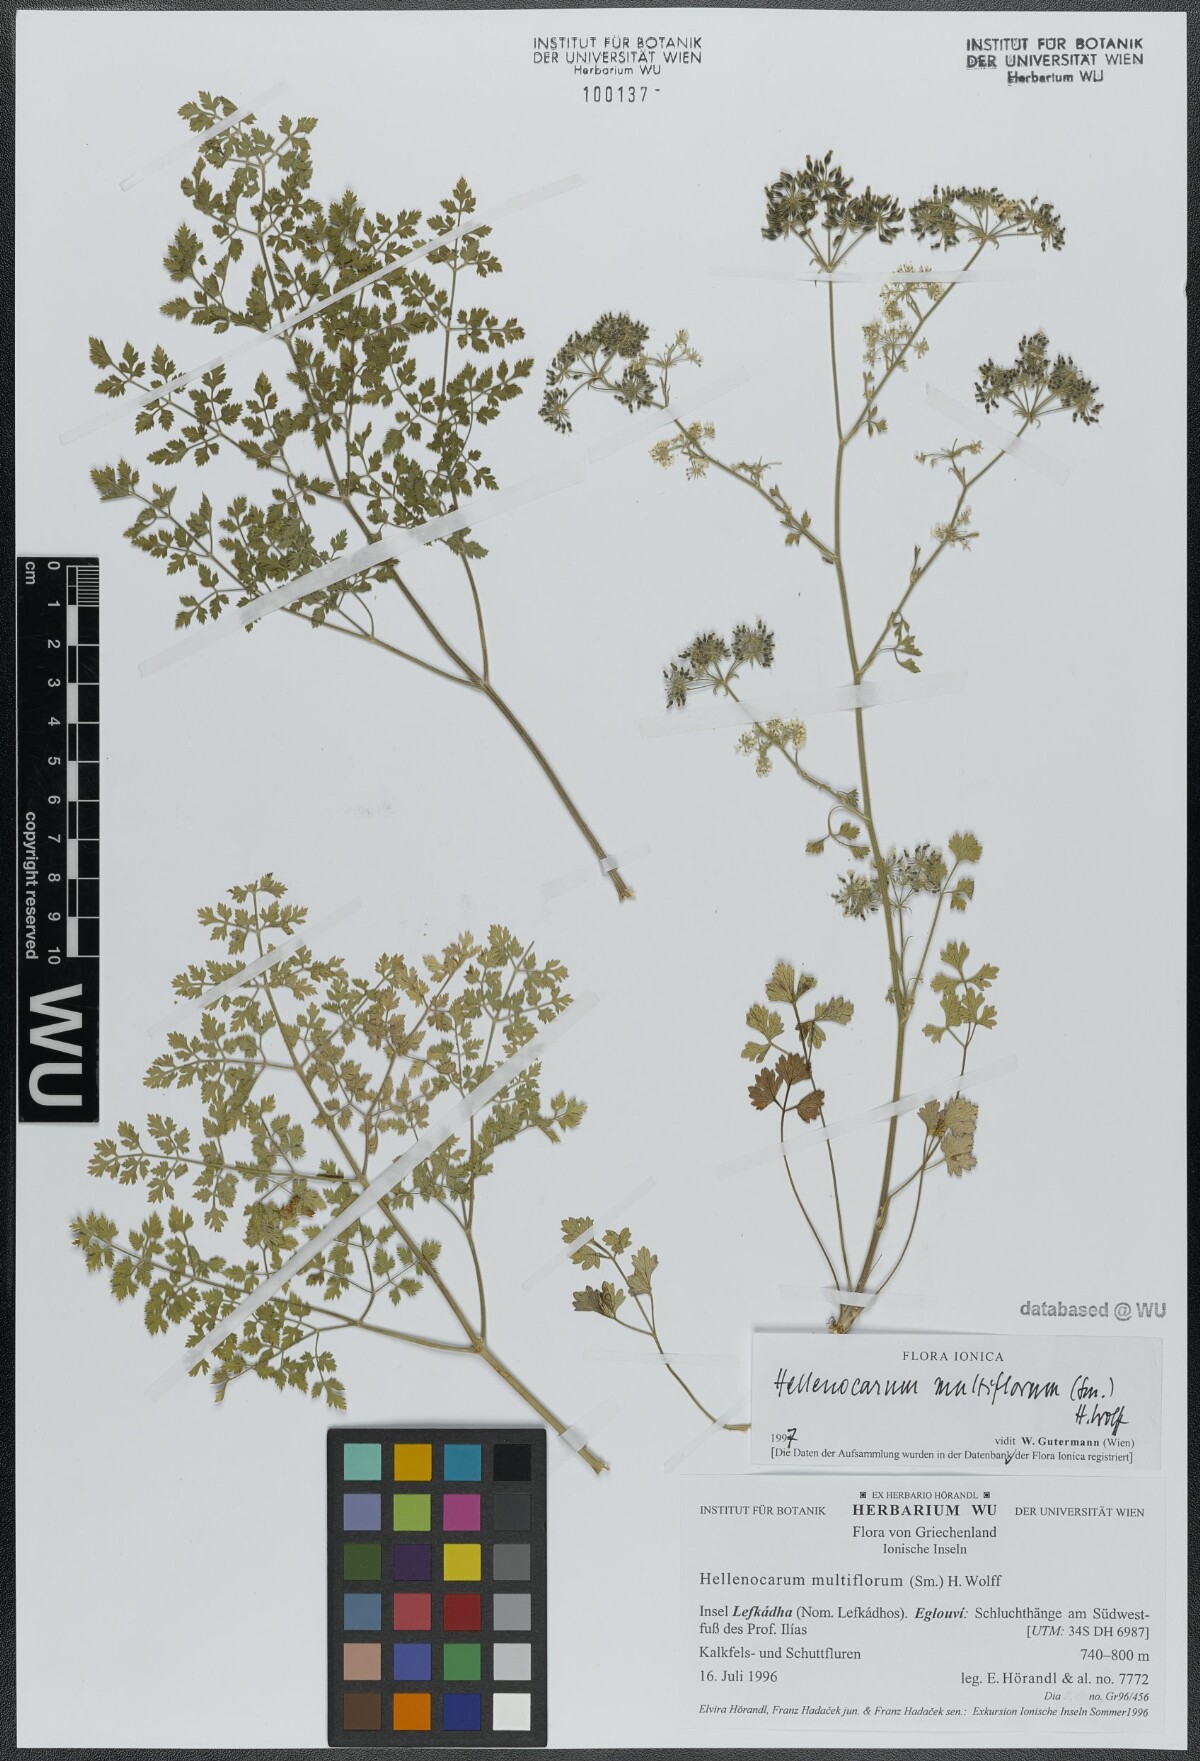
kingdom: Plantae
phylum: Tracheophyta
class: Magnoliopsida
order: Apiales
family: Apiaceae
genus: Hellenocarum
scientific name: Hellenocarum multiflorum
